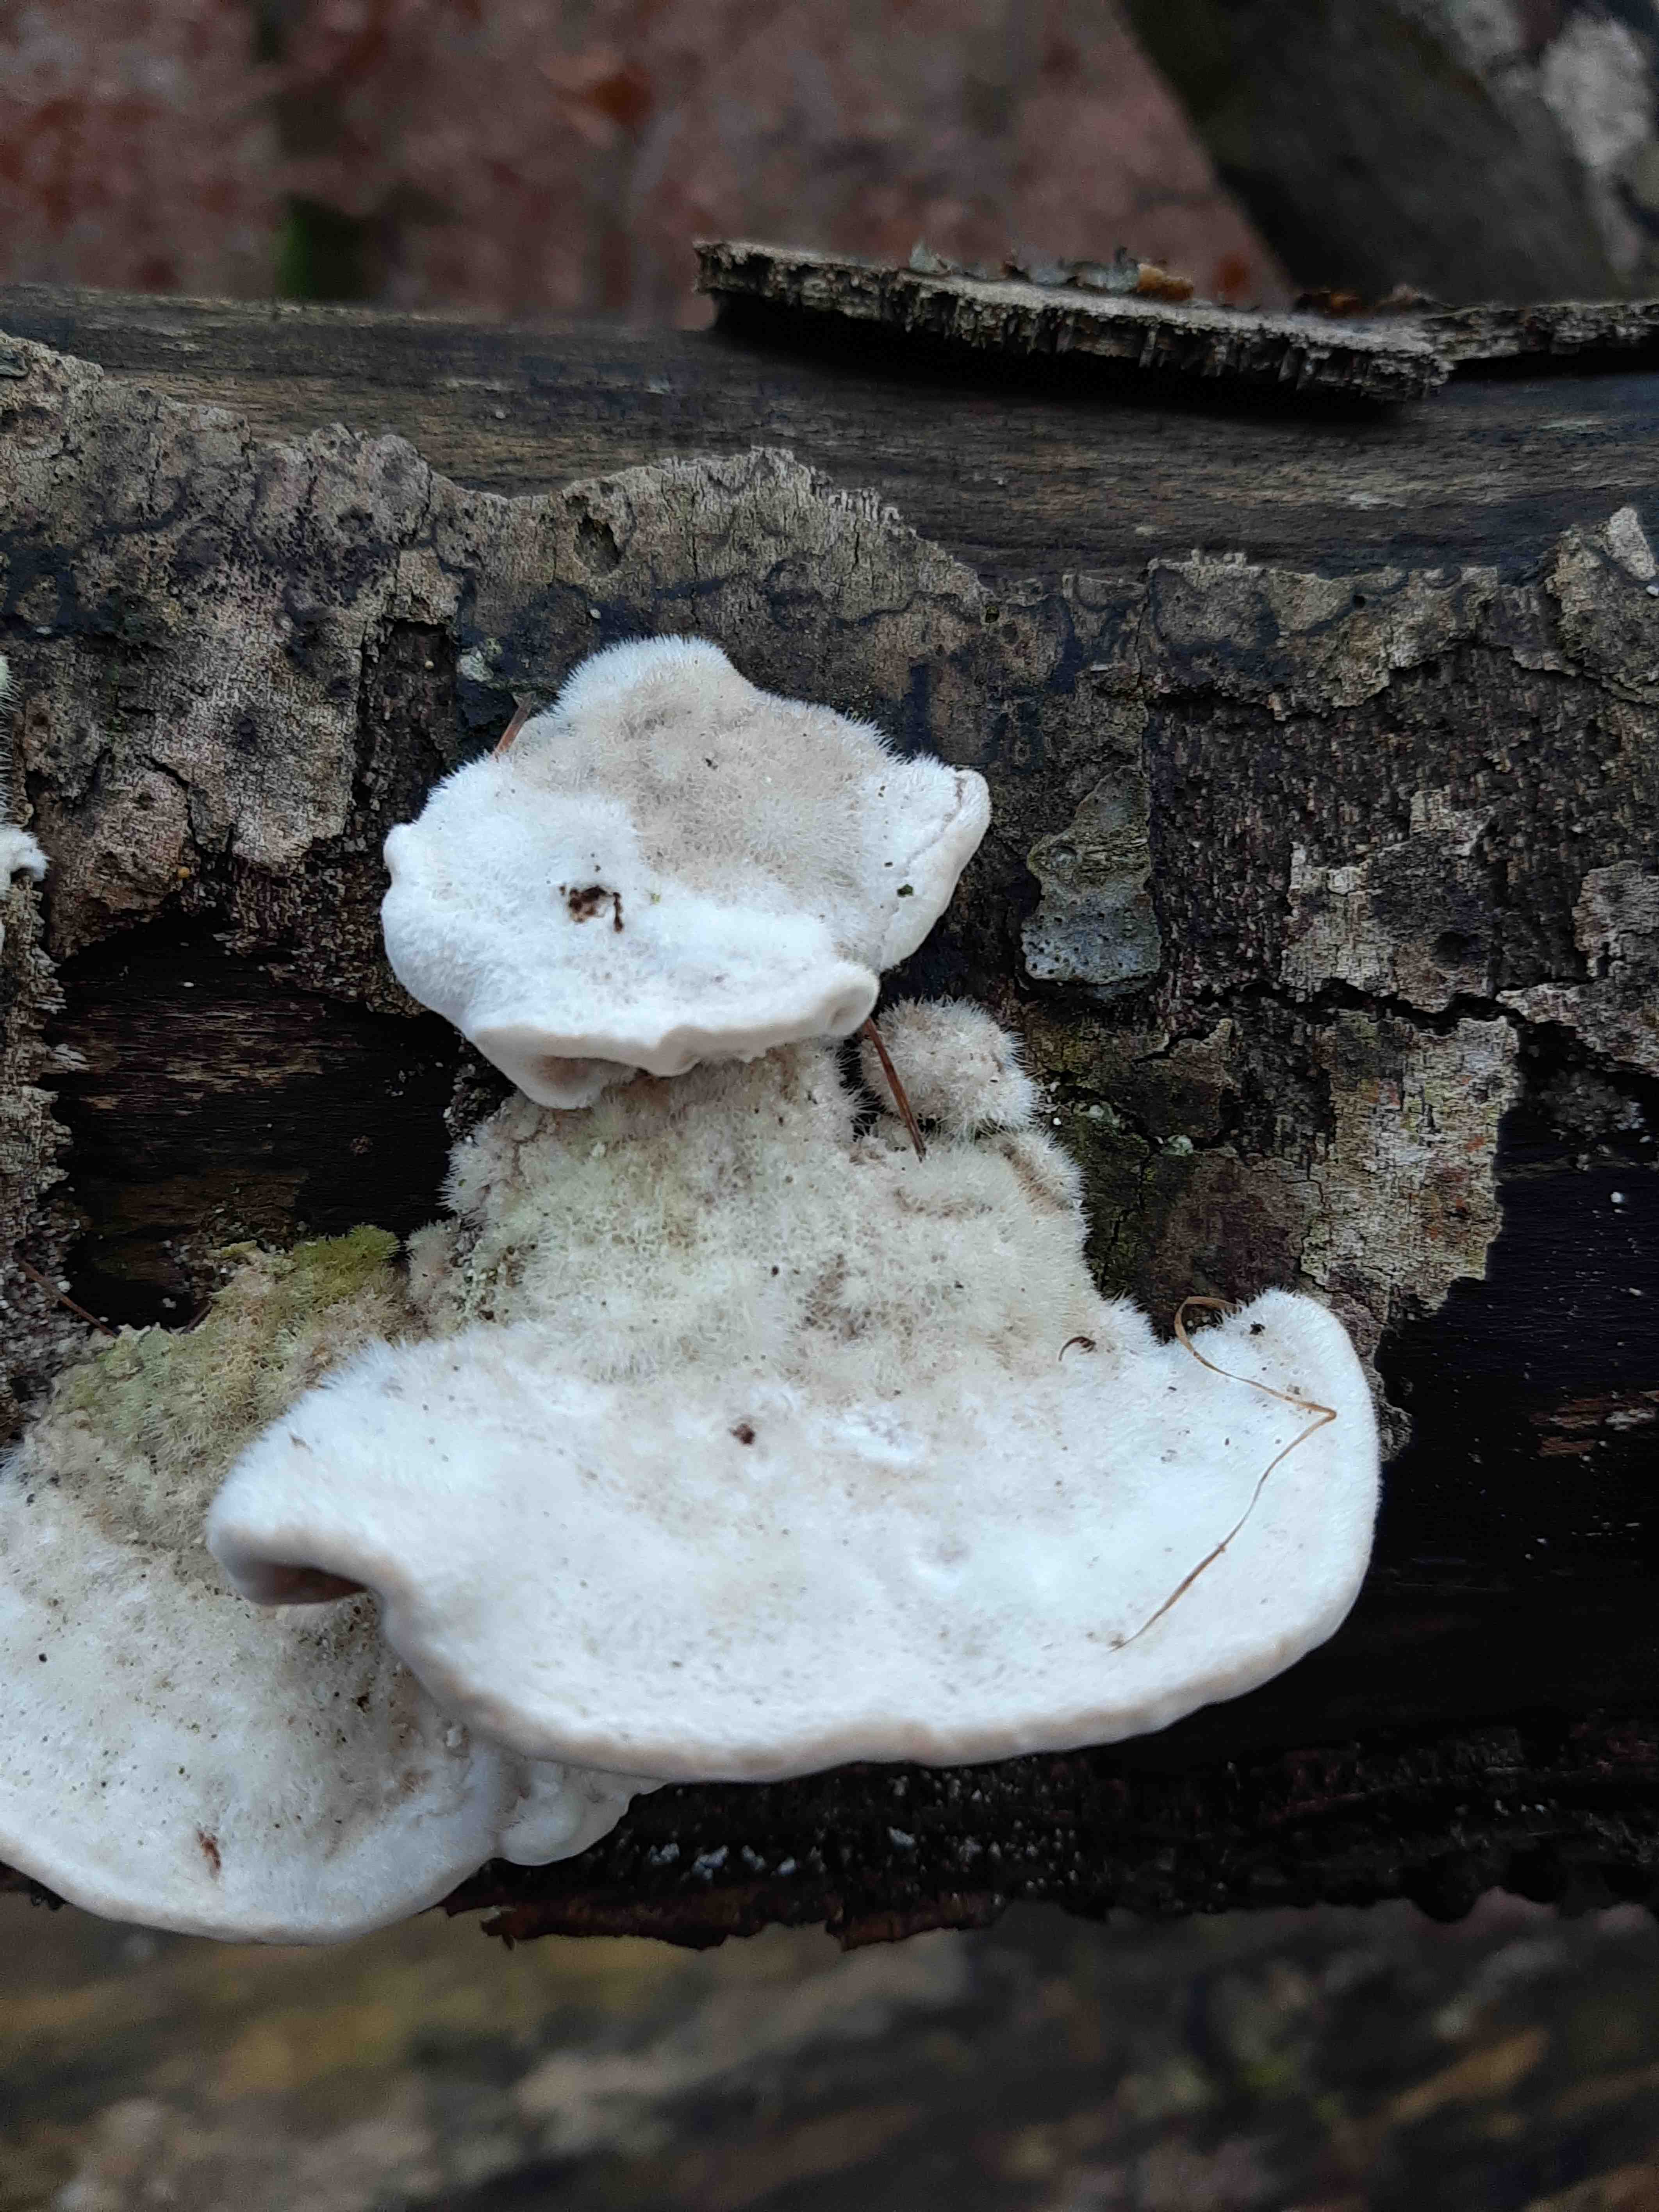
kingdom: Fungi
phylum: Basidiomycota
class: Agaricomycetes
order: Polyporales
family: Polyporaceae
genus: Trametes
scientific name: Trametes hirsuta
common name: håret læderporesvamp
